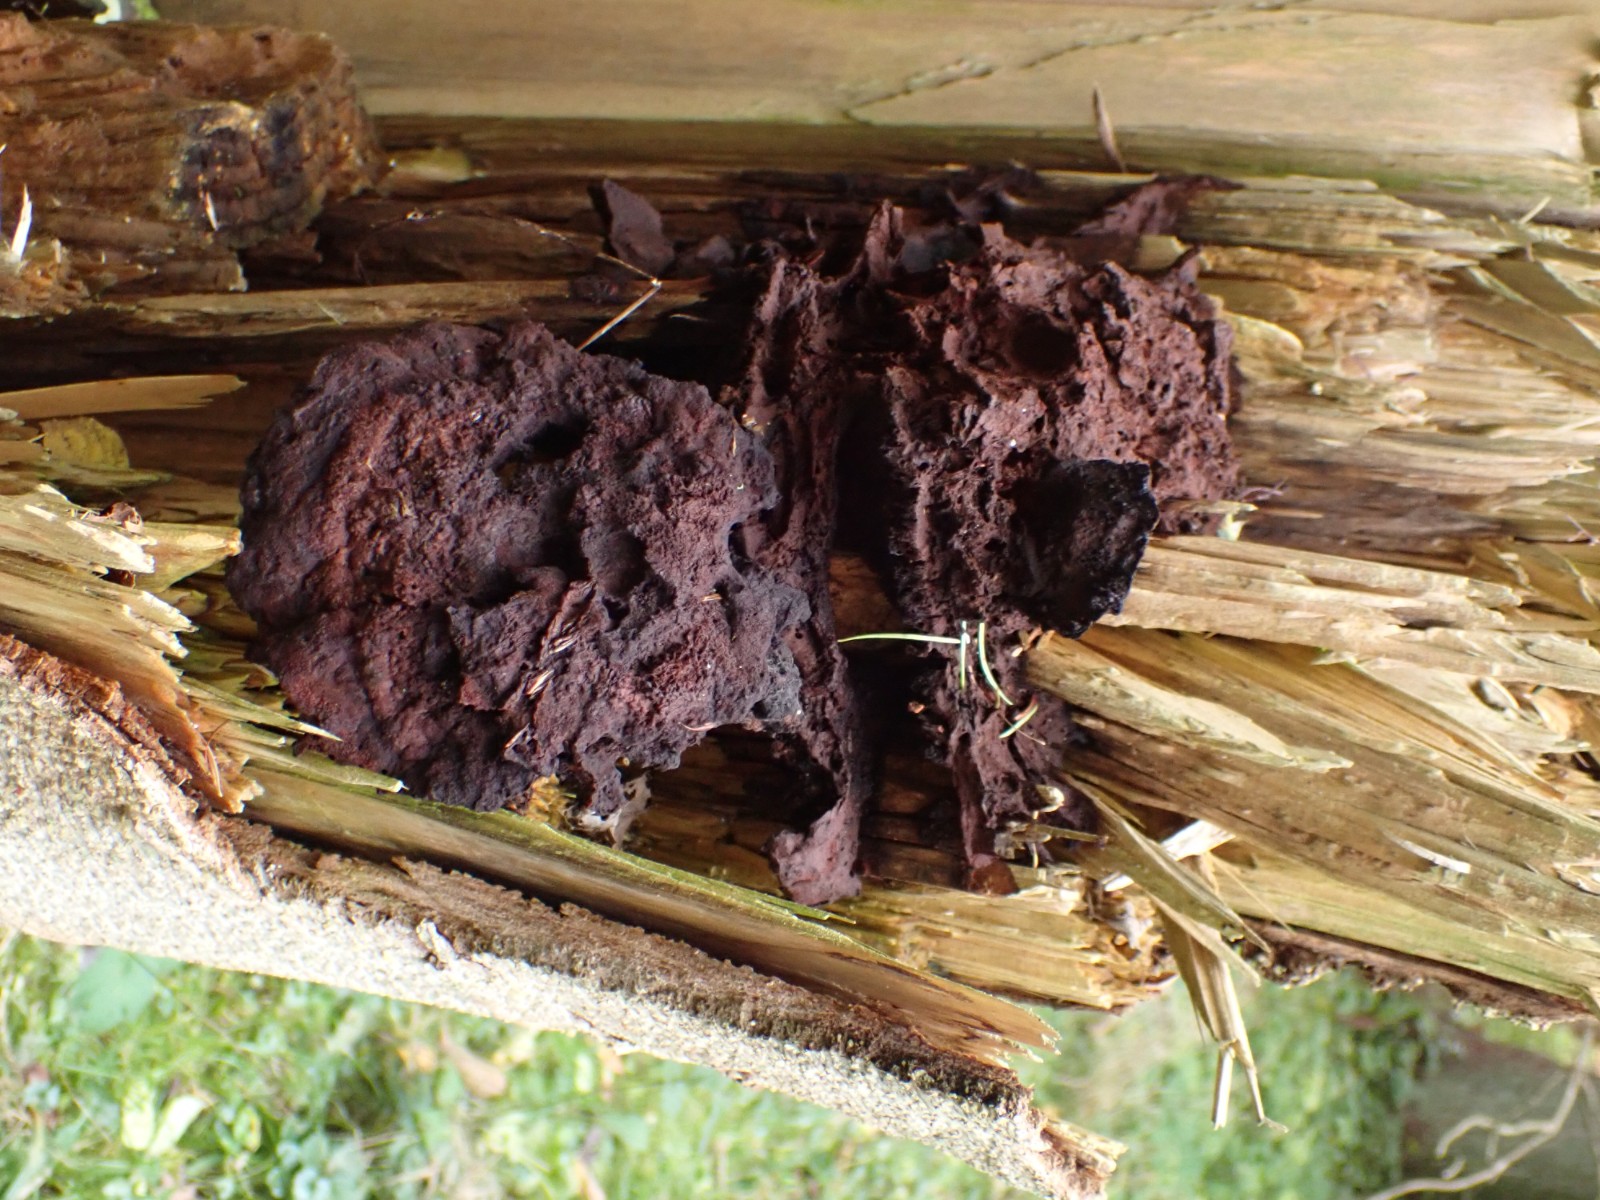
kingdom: Fungi
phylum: Basidiomycota
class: Agaricomycetes
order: Polyporales
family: Laetiporaceae
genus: Phaeolus
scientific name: Phaeolus schweinitzii
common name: brunporesvamp
